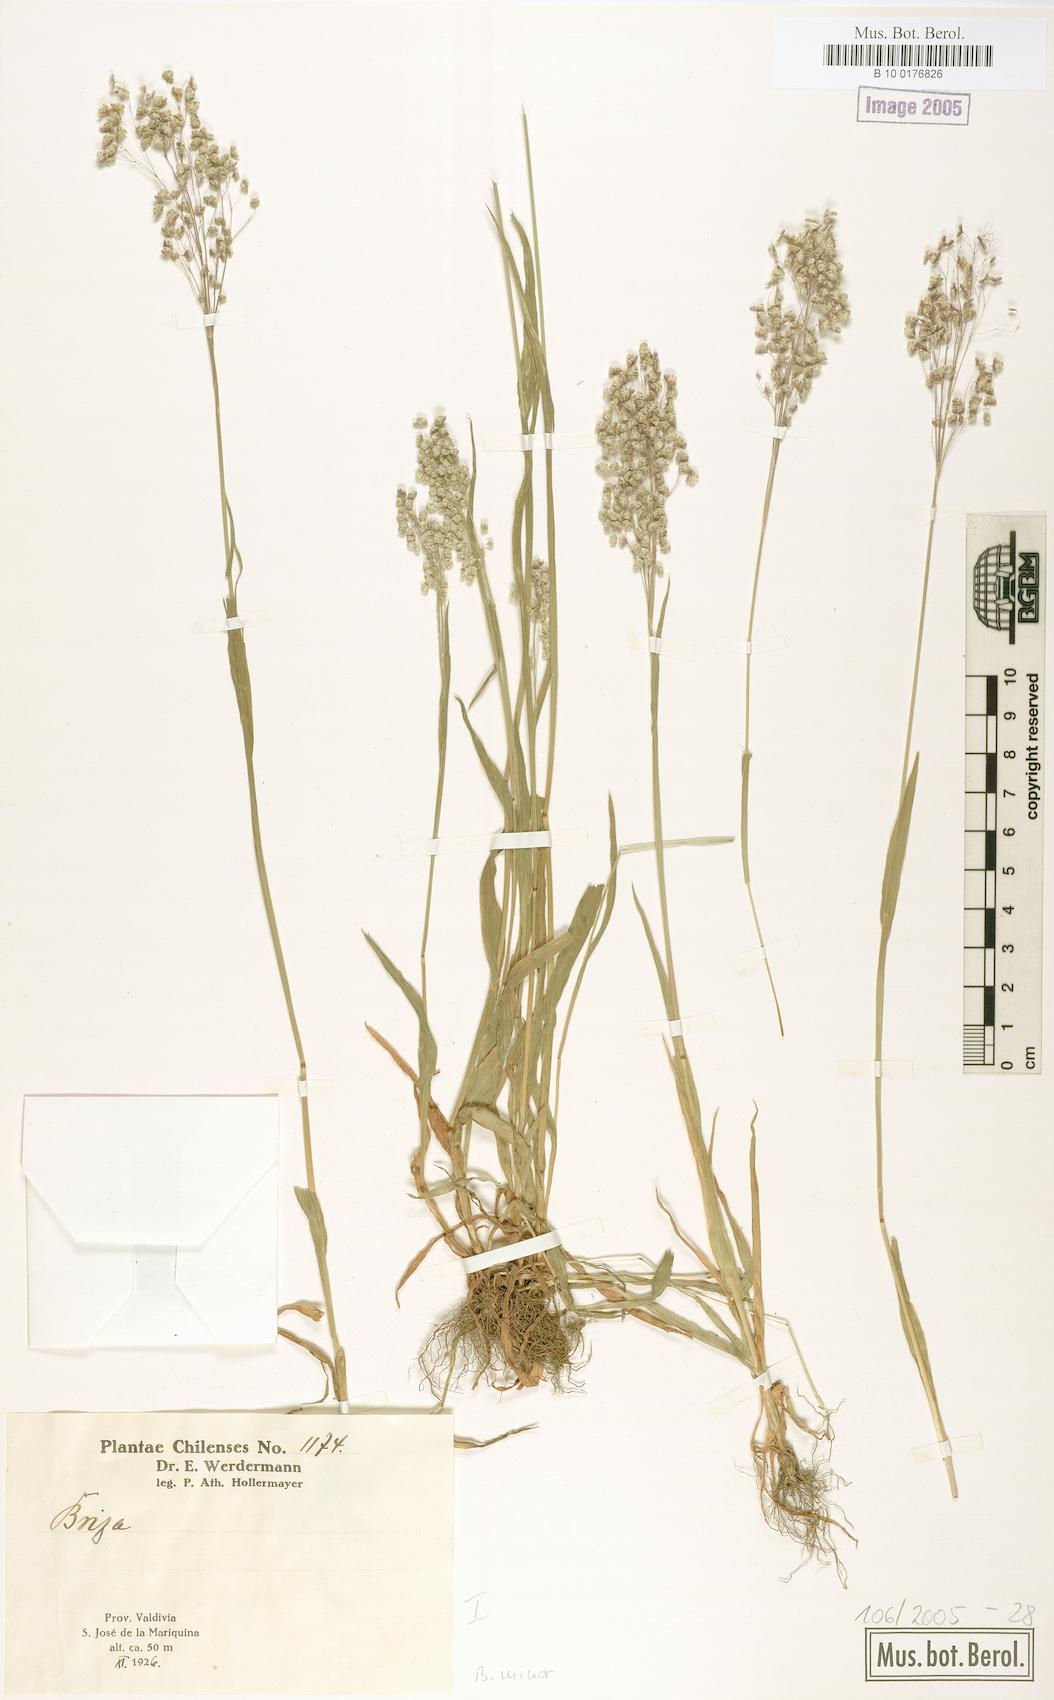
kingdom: Plantae
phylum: Tracheophyta
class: Liliopsida
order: Poales
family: Poaceae
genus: Briza
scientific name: Briza minor
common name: Lesser quaking-grass
